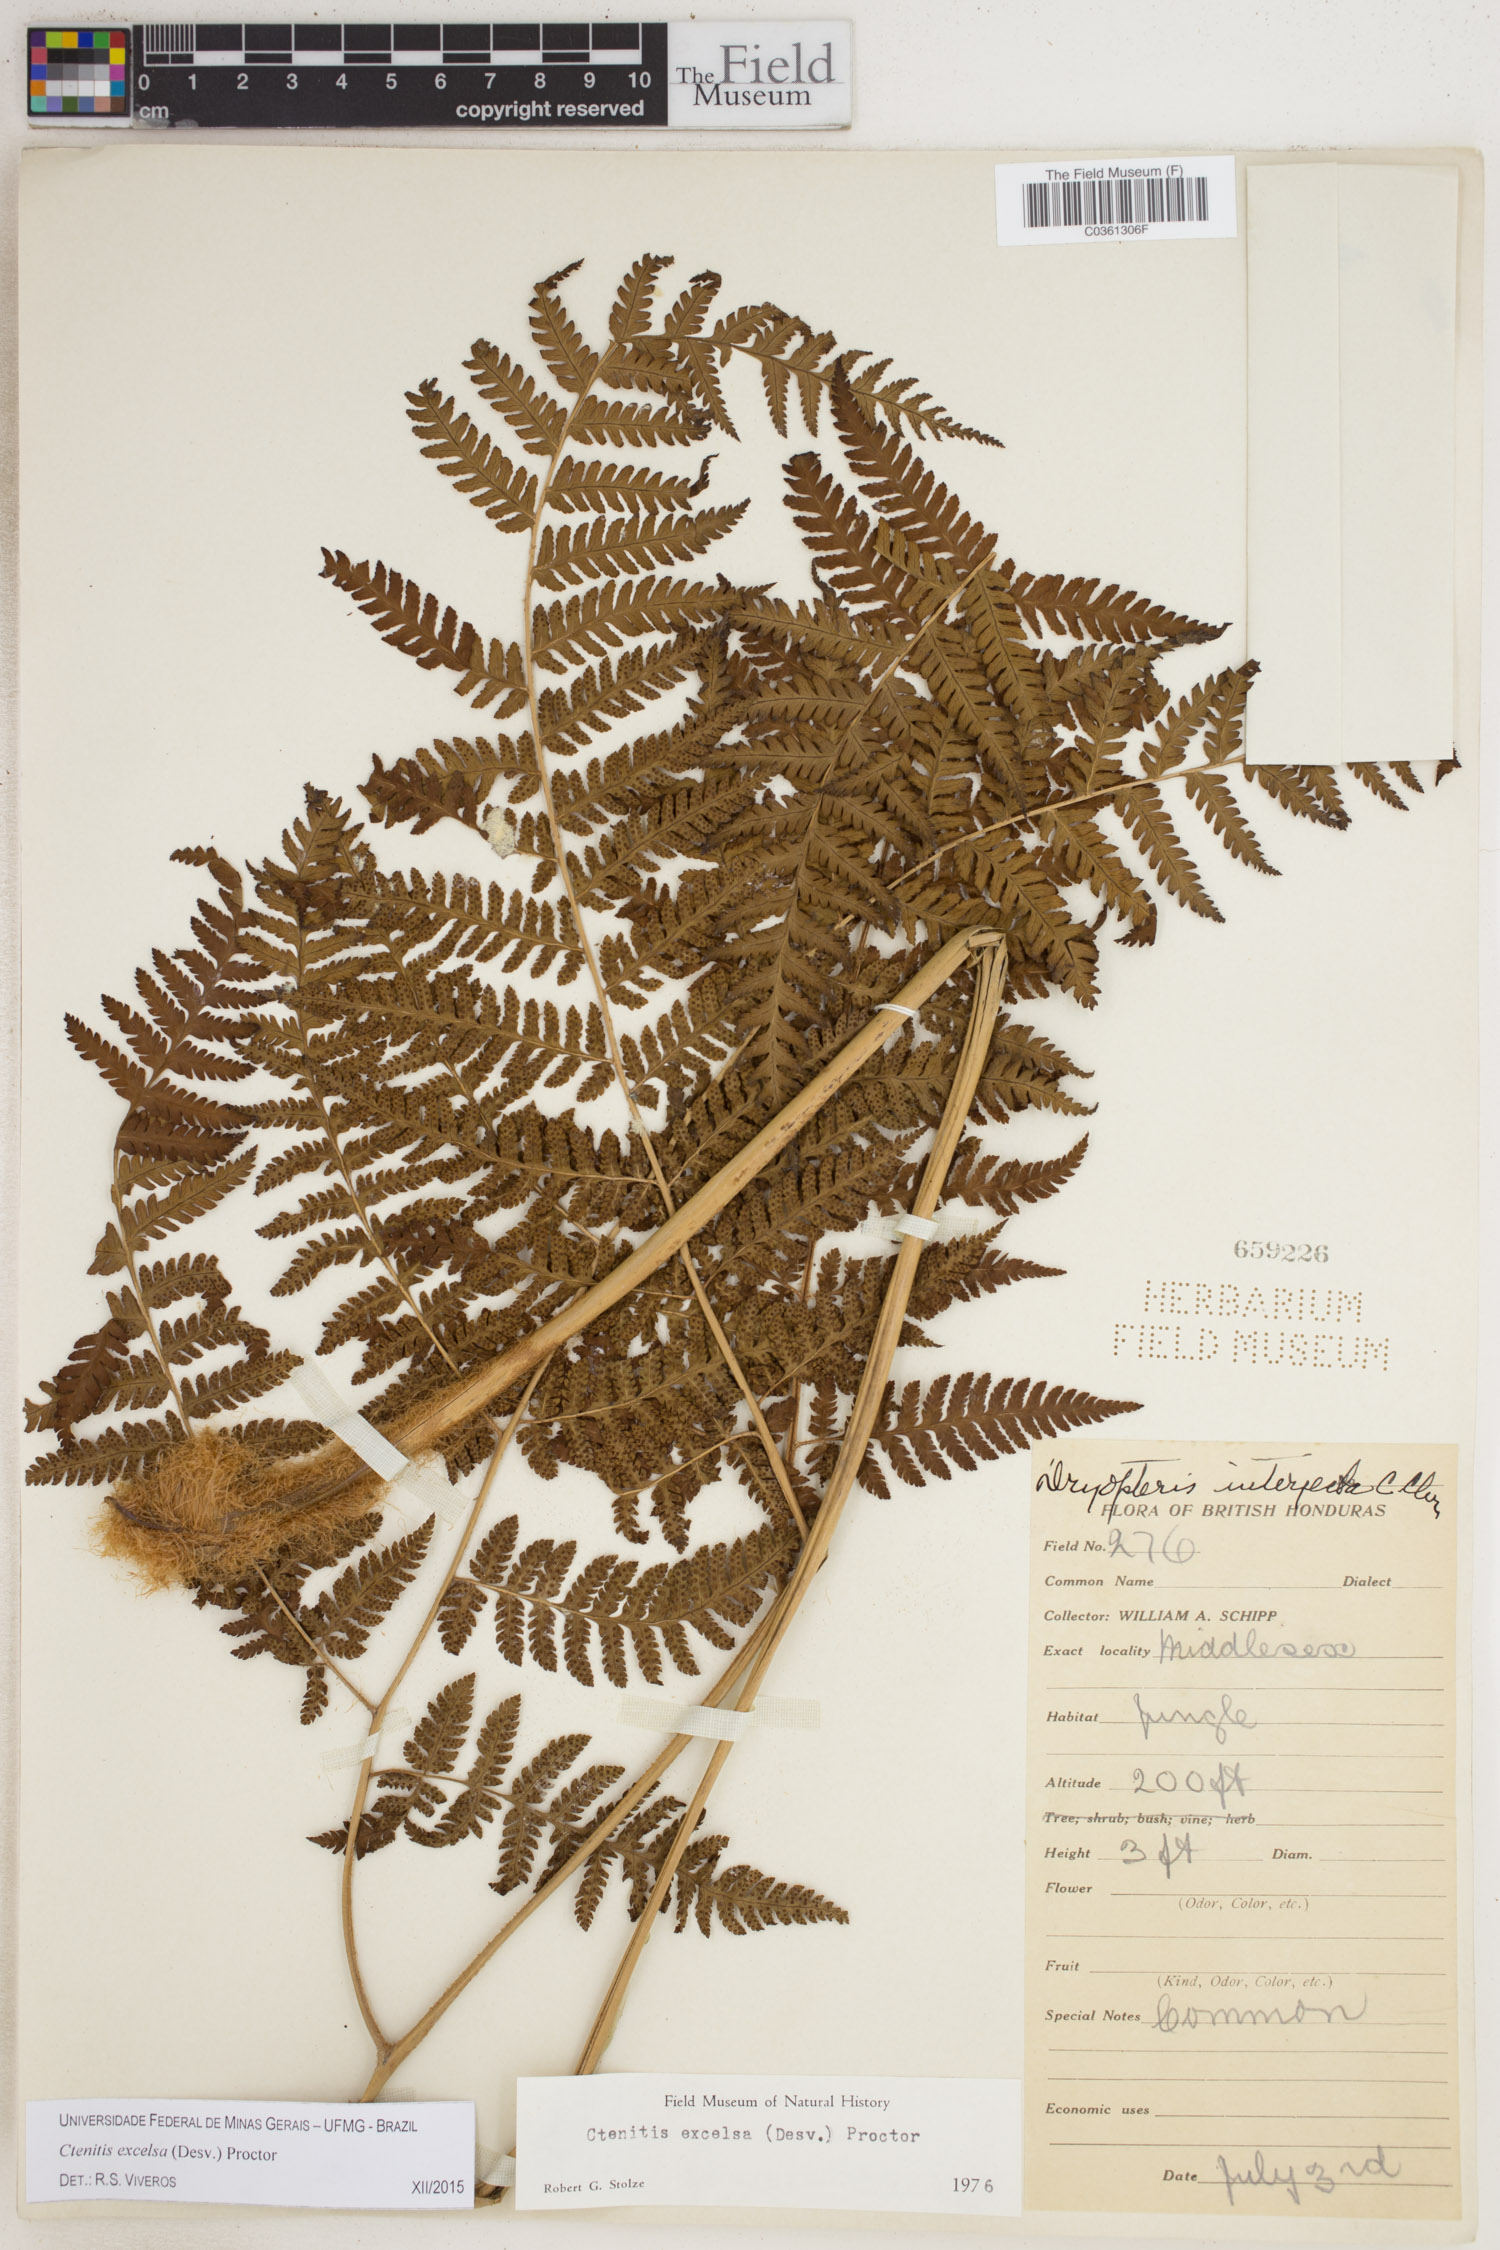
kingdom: Plantae
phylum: Tracheophyta
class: Polypodiopsida
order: Polypodiales
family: Dryopteridaceae
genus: Ctenitis
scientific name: Ctenitis excelsa
